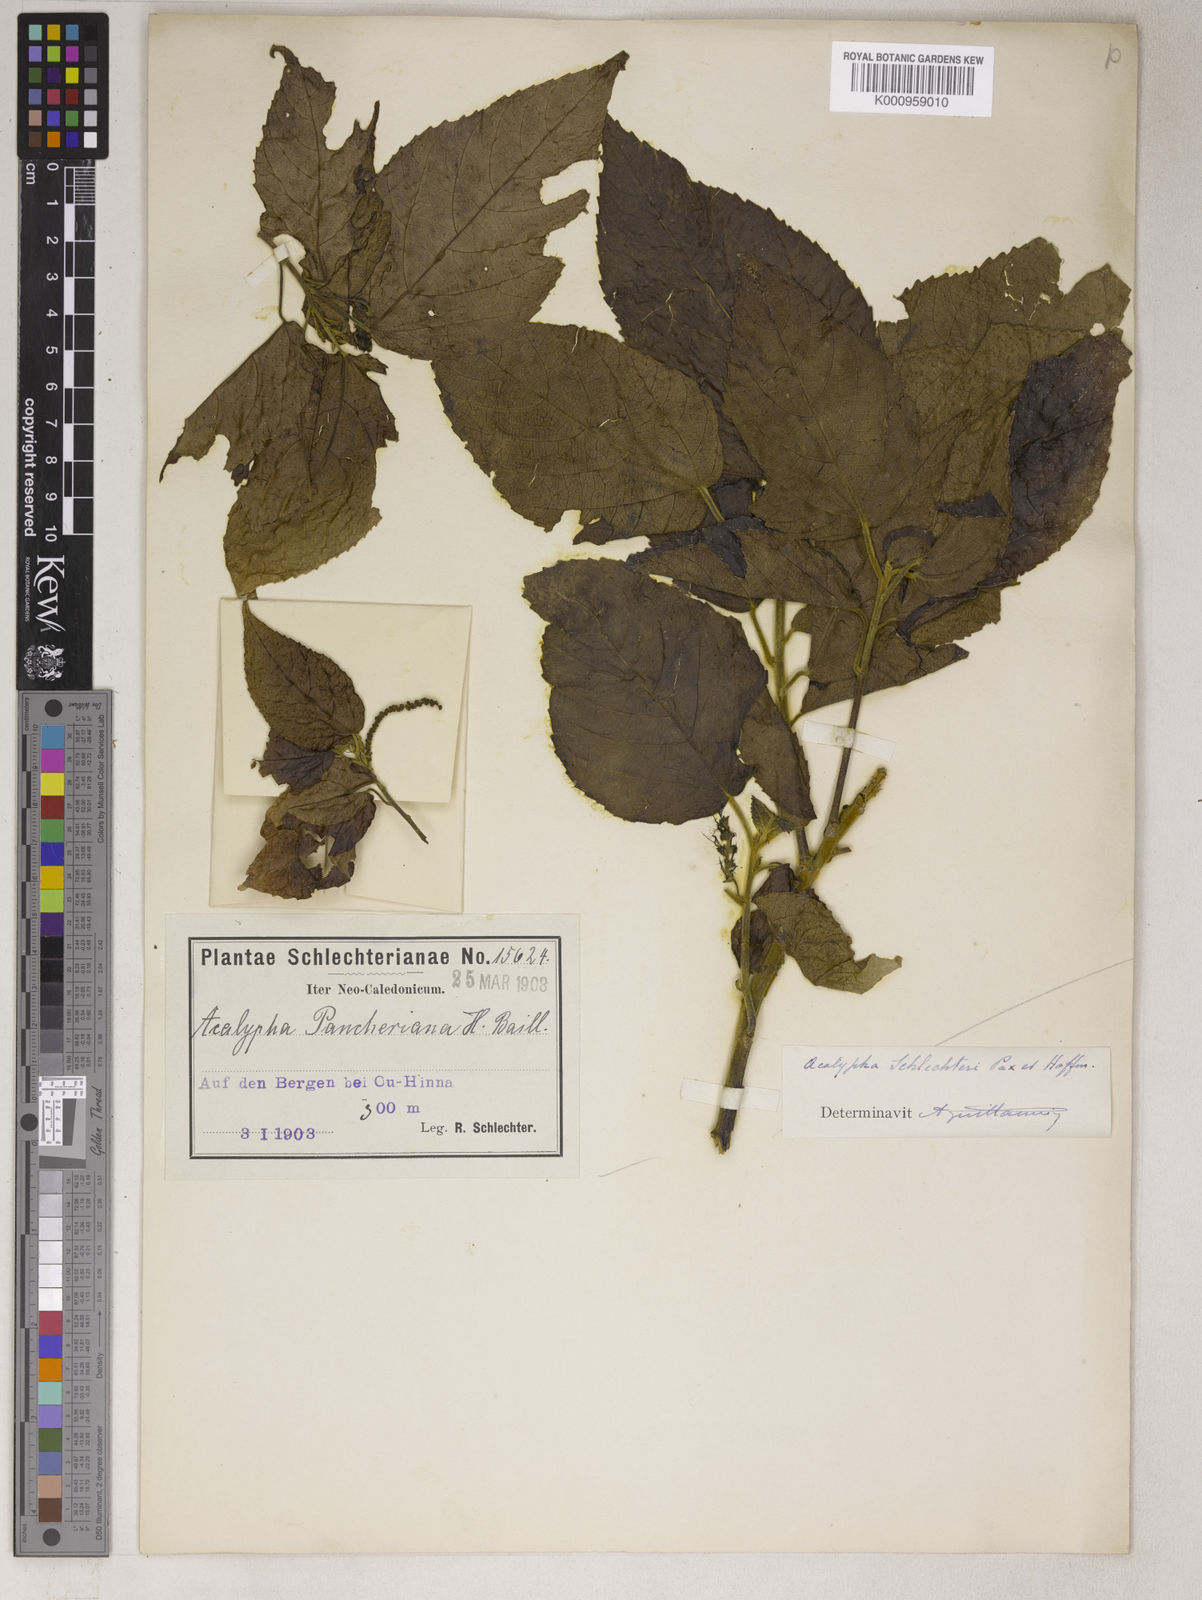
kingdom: Plantae
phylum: Tracheophyta
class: Magnoliopsida
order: Malpighiales
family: Euphorbiaceae
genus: Acalypha
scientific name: Acalypha pancheriana
